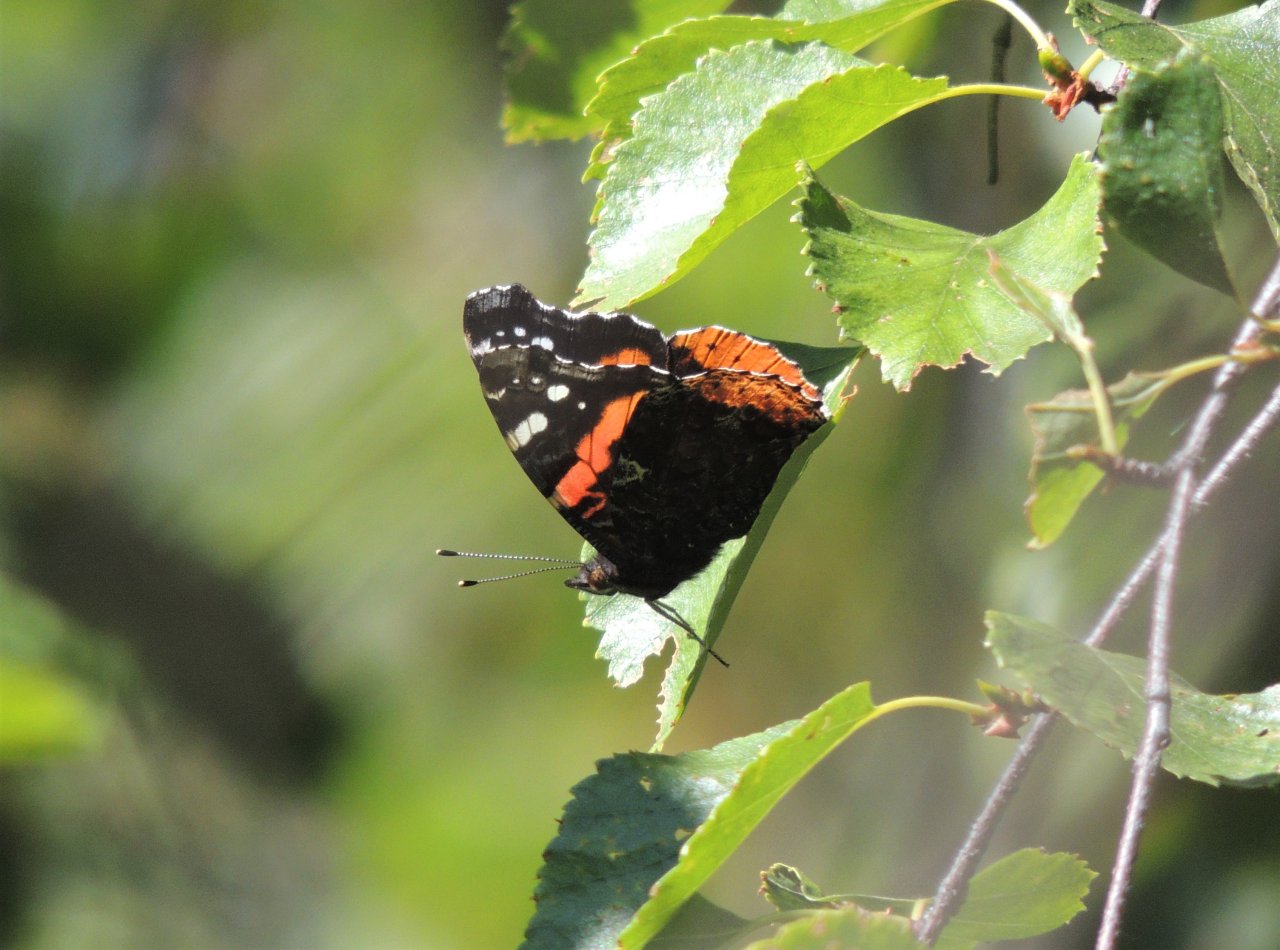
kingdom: Animalia
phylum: Arthropoda
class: Insecta
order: Lepidoptera
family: Nymphalidae
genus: Vanessa
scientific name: Vanessa atalanta
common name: Red Admiral
